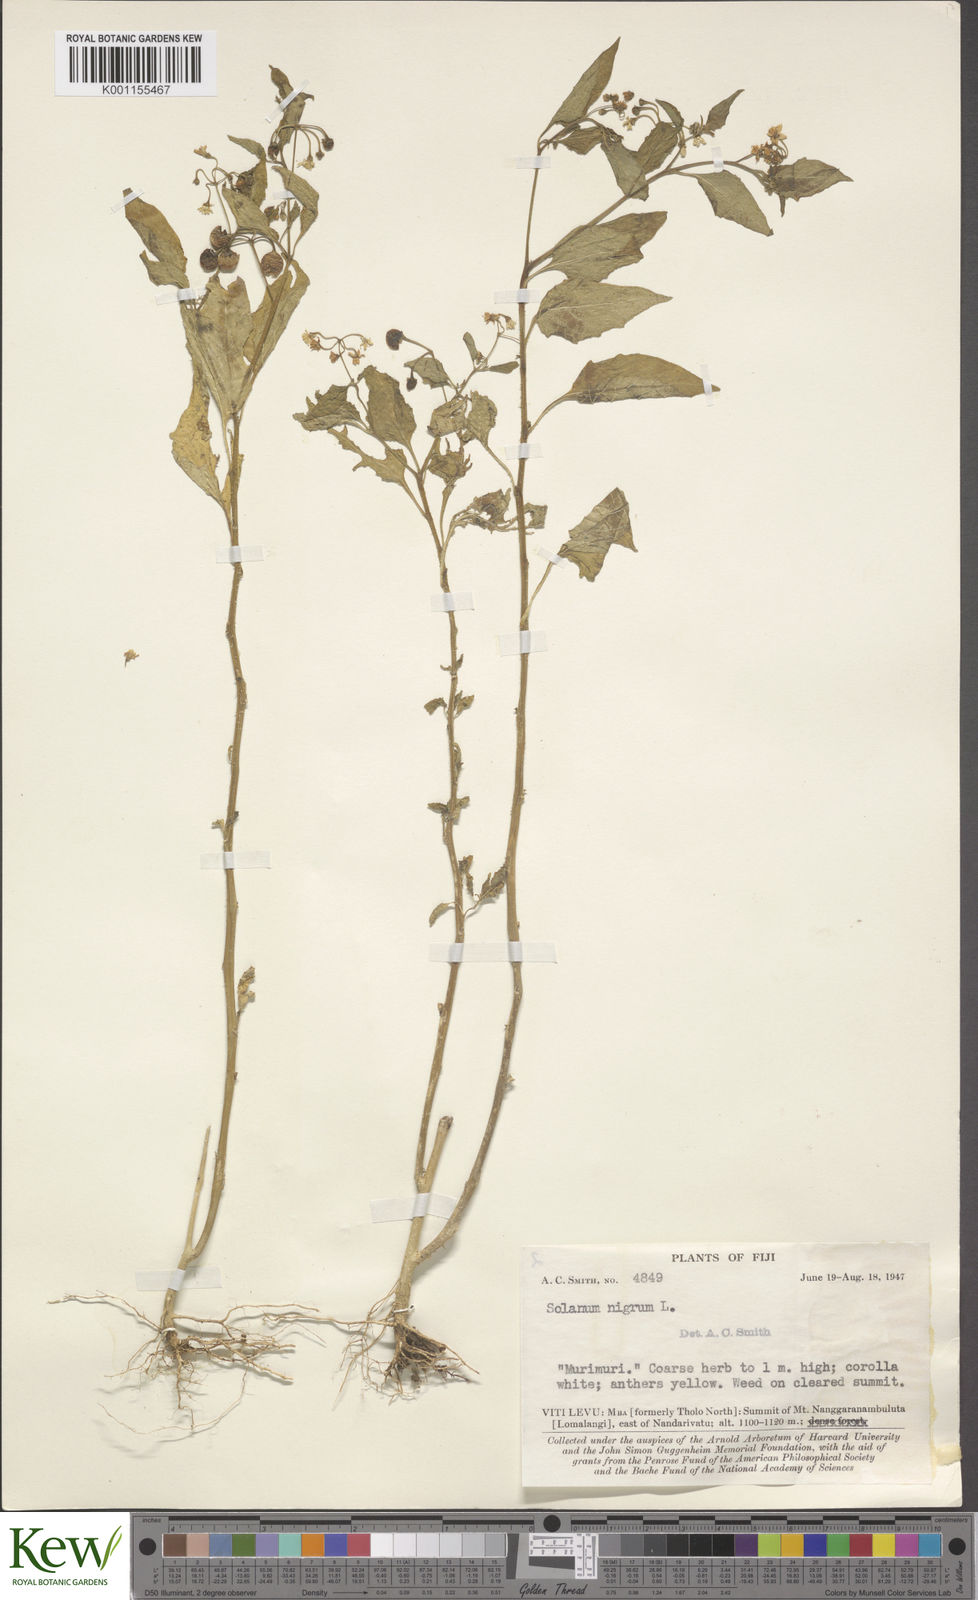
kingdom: Plantae
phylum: Tracheophyta
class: Magnoliopsida
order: Solanales
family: Solanaceae
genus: Solanum
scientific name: Solanum
